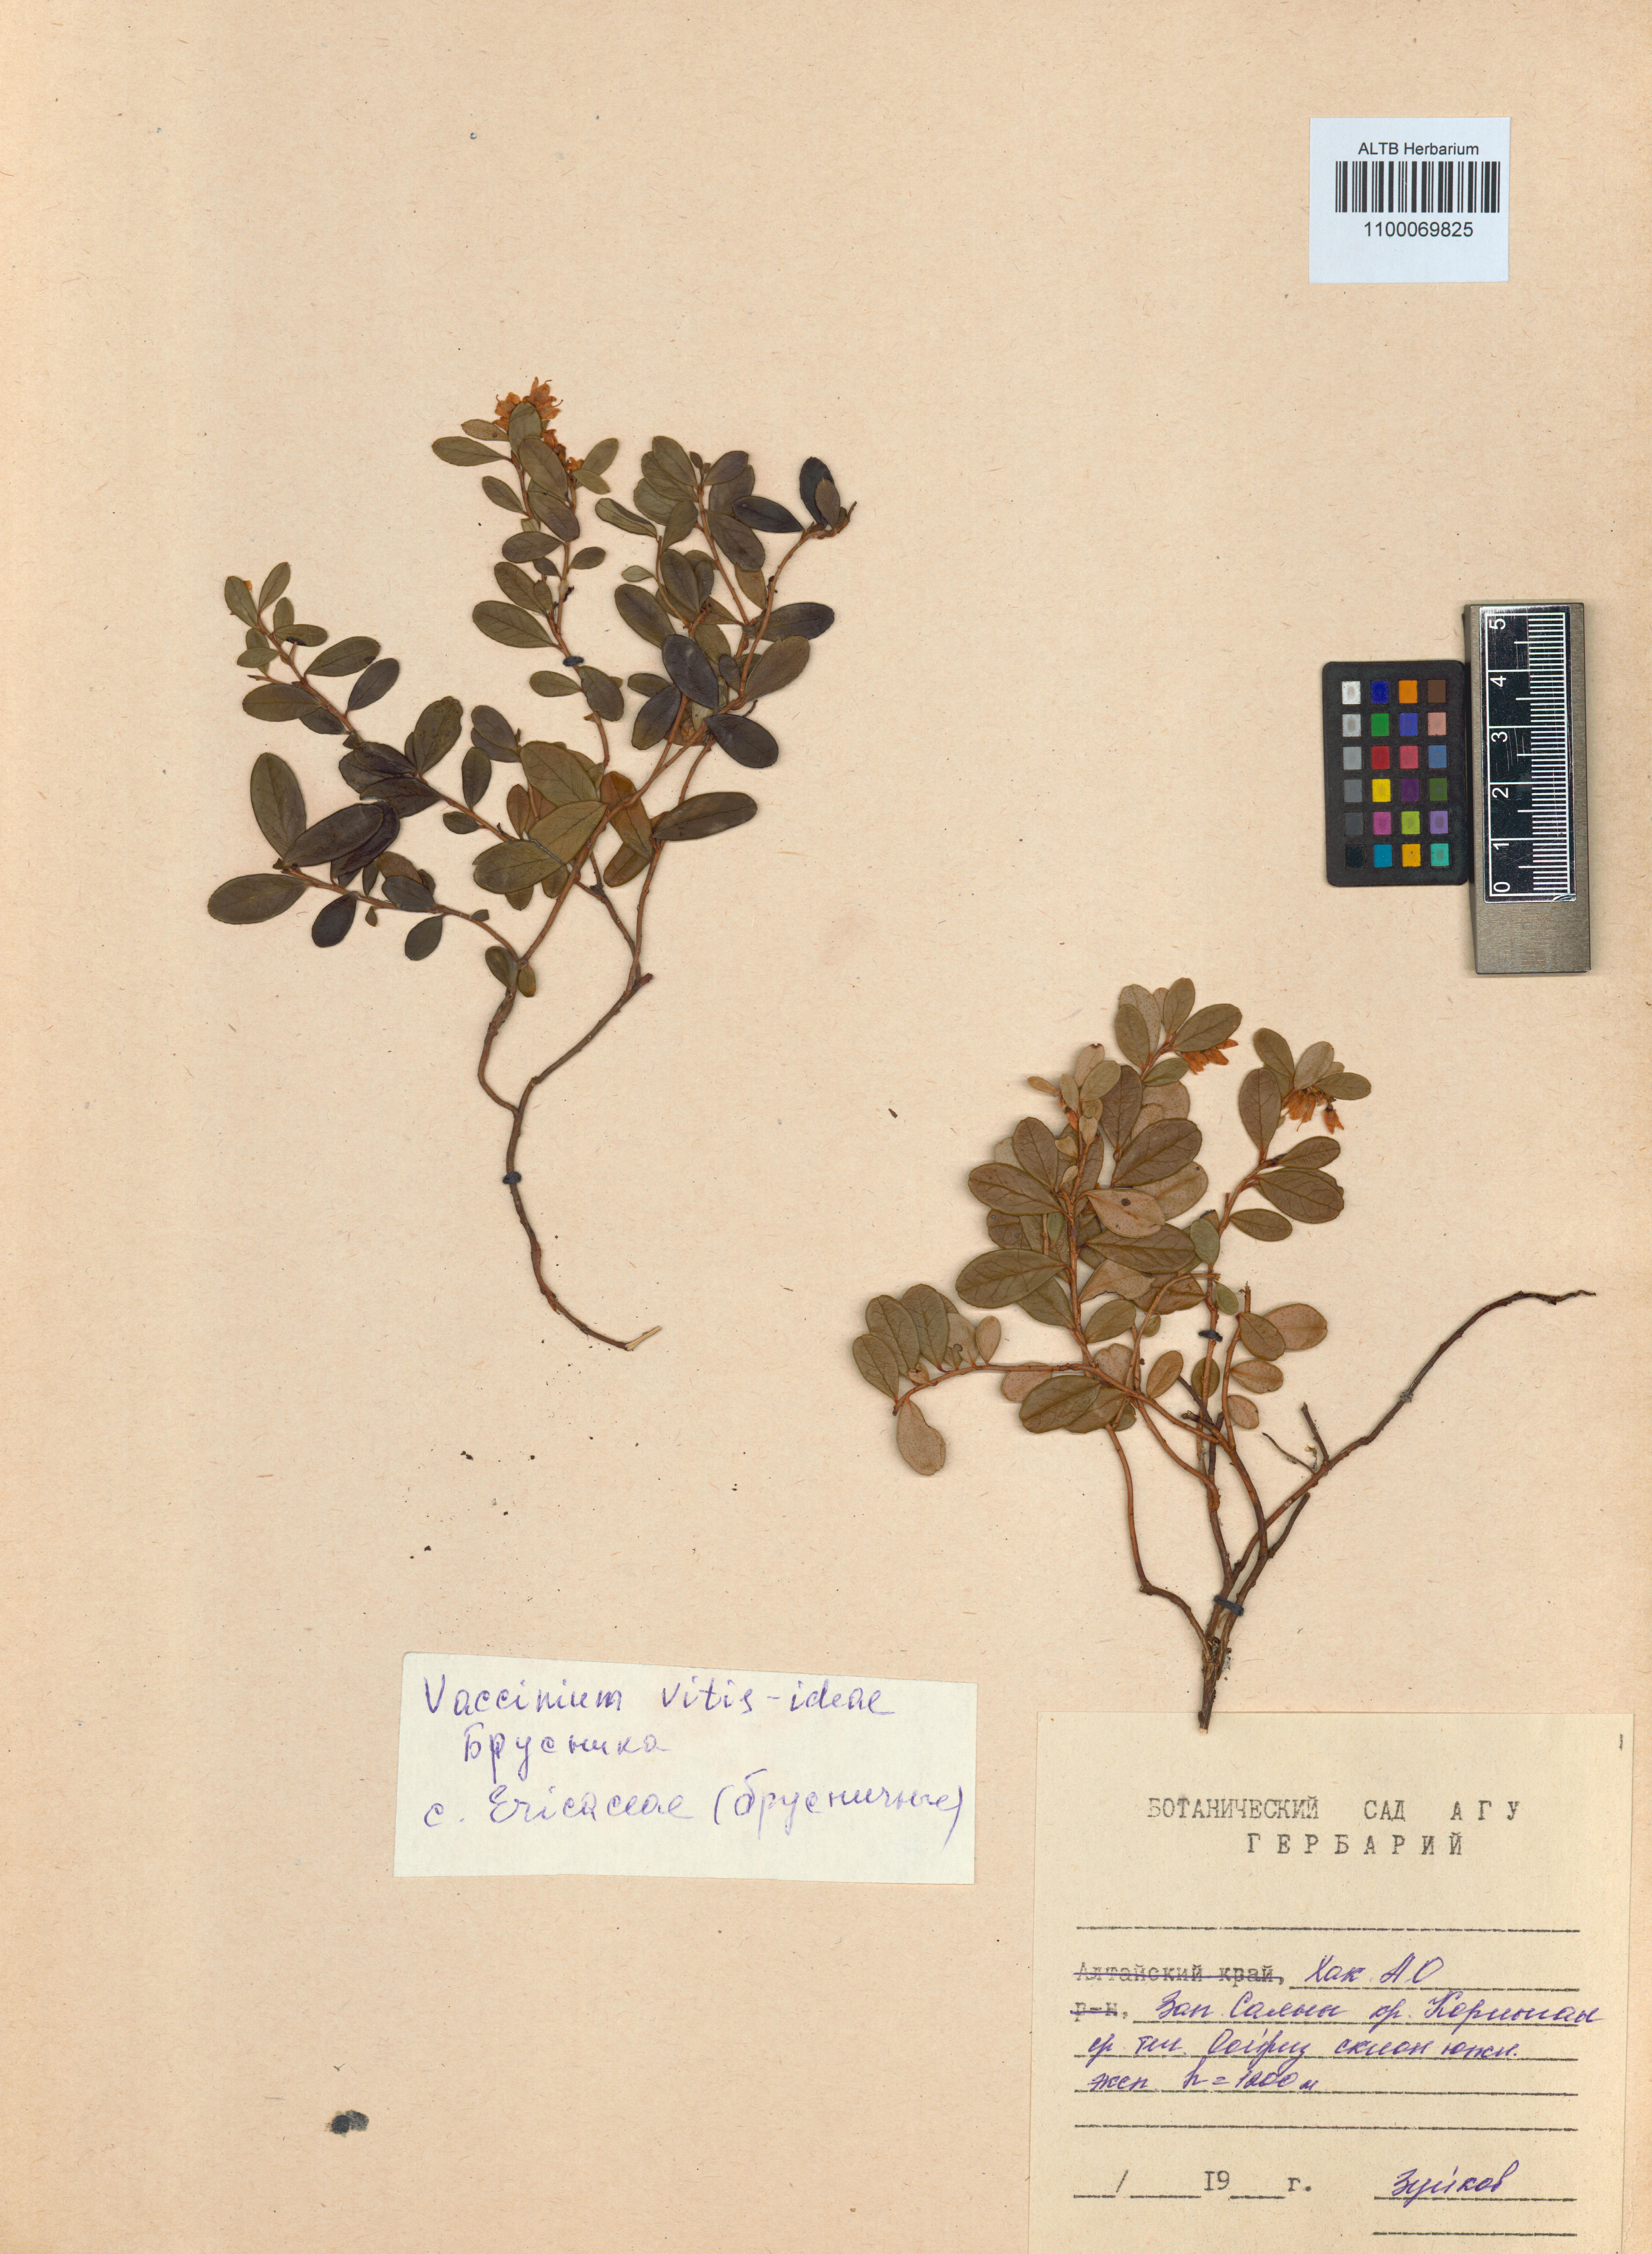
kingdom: Plantae
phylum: Tracheophyta
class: Magnoliopsida
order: Ericales
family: Ericaceae
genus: Vaccinium
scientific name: Vaccinium vitis-idaea
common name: Cowberry
